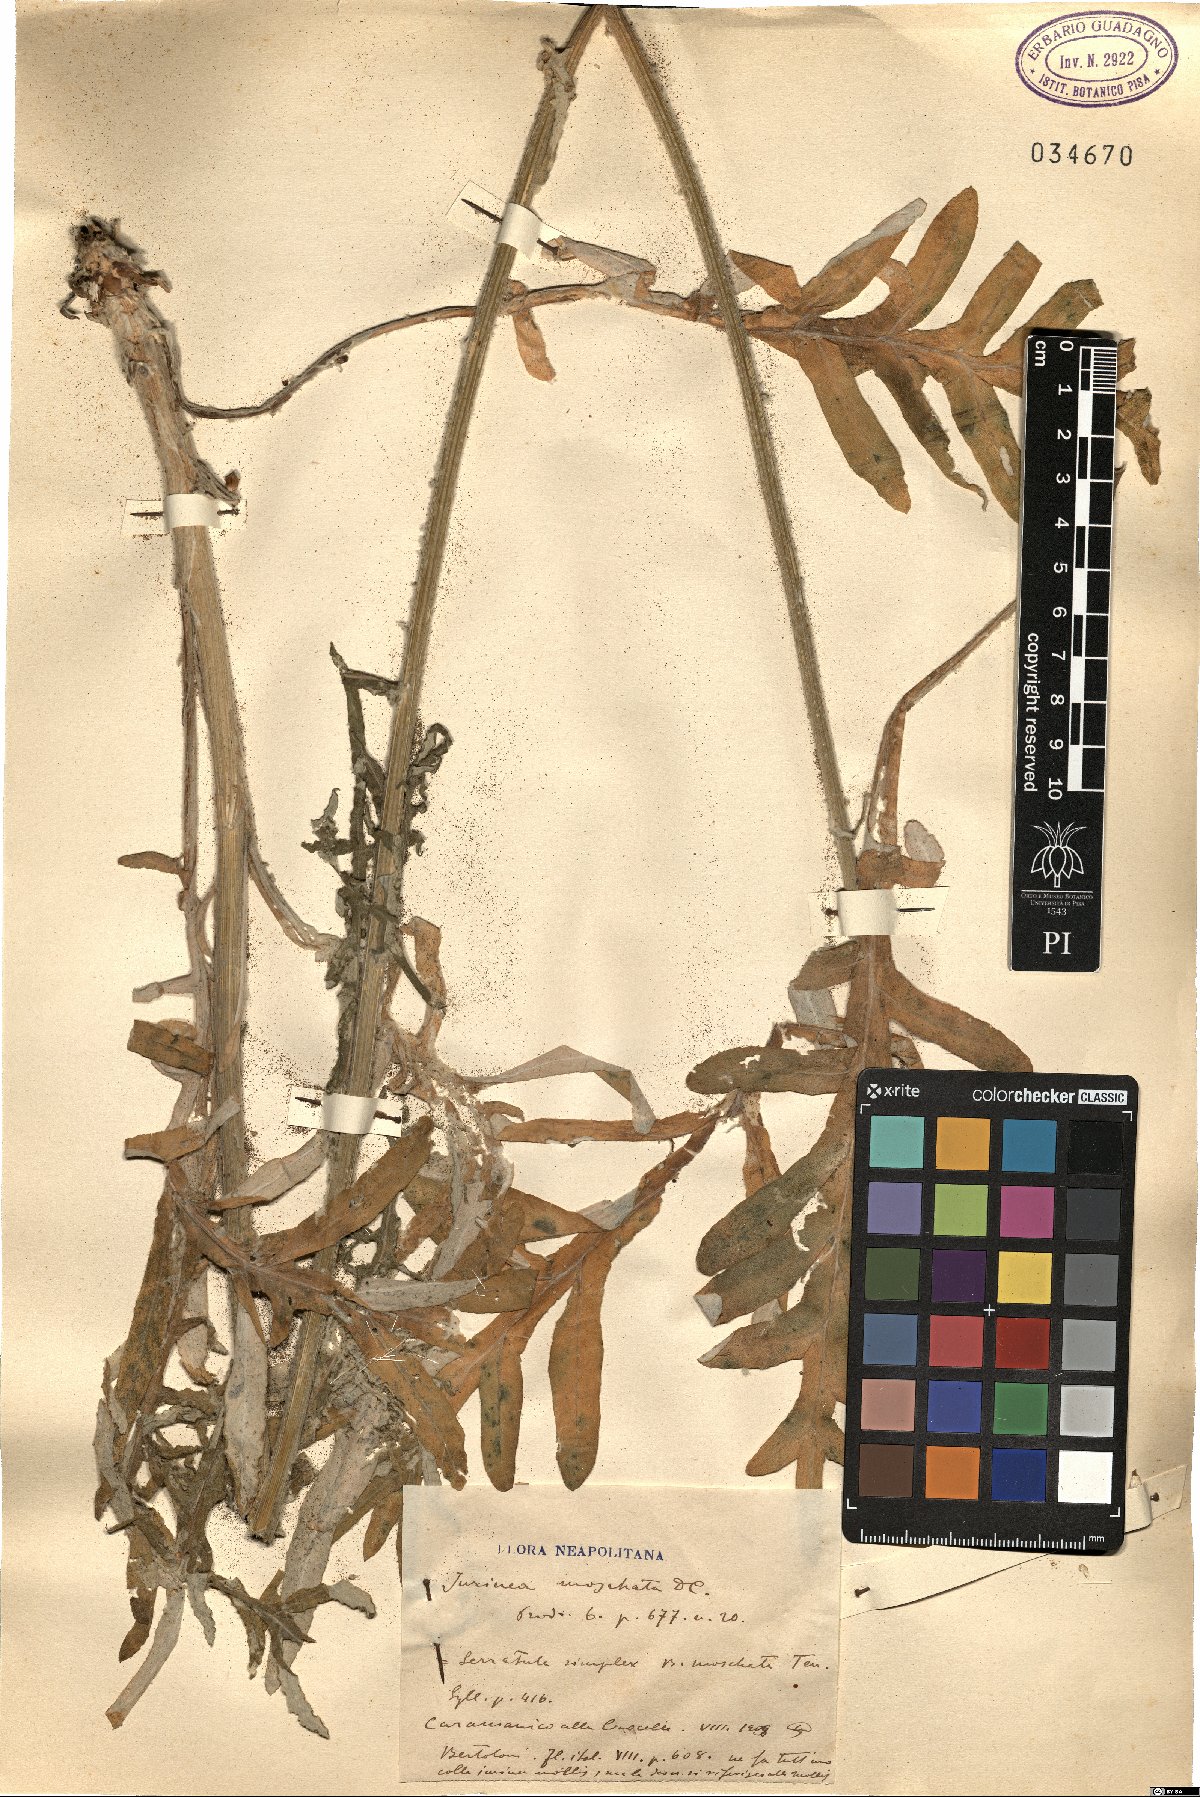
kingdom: Plantae
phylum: Tracheophyta
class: Magnoliopsida
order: Asterales
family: Asteraceae
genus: Jurinea
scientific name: Jurinea mollis
